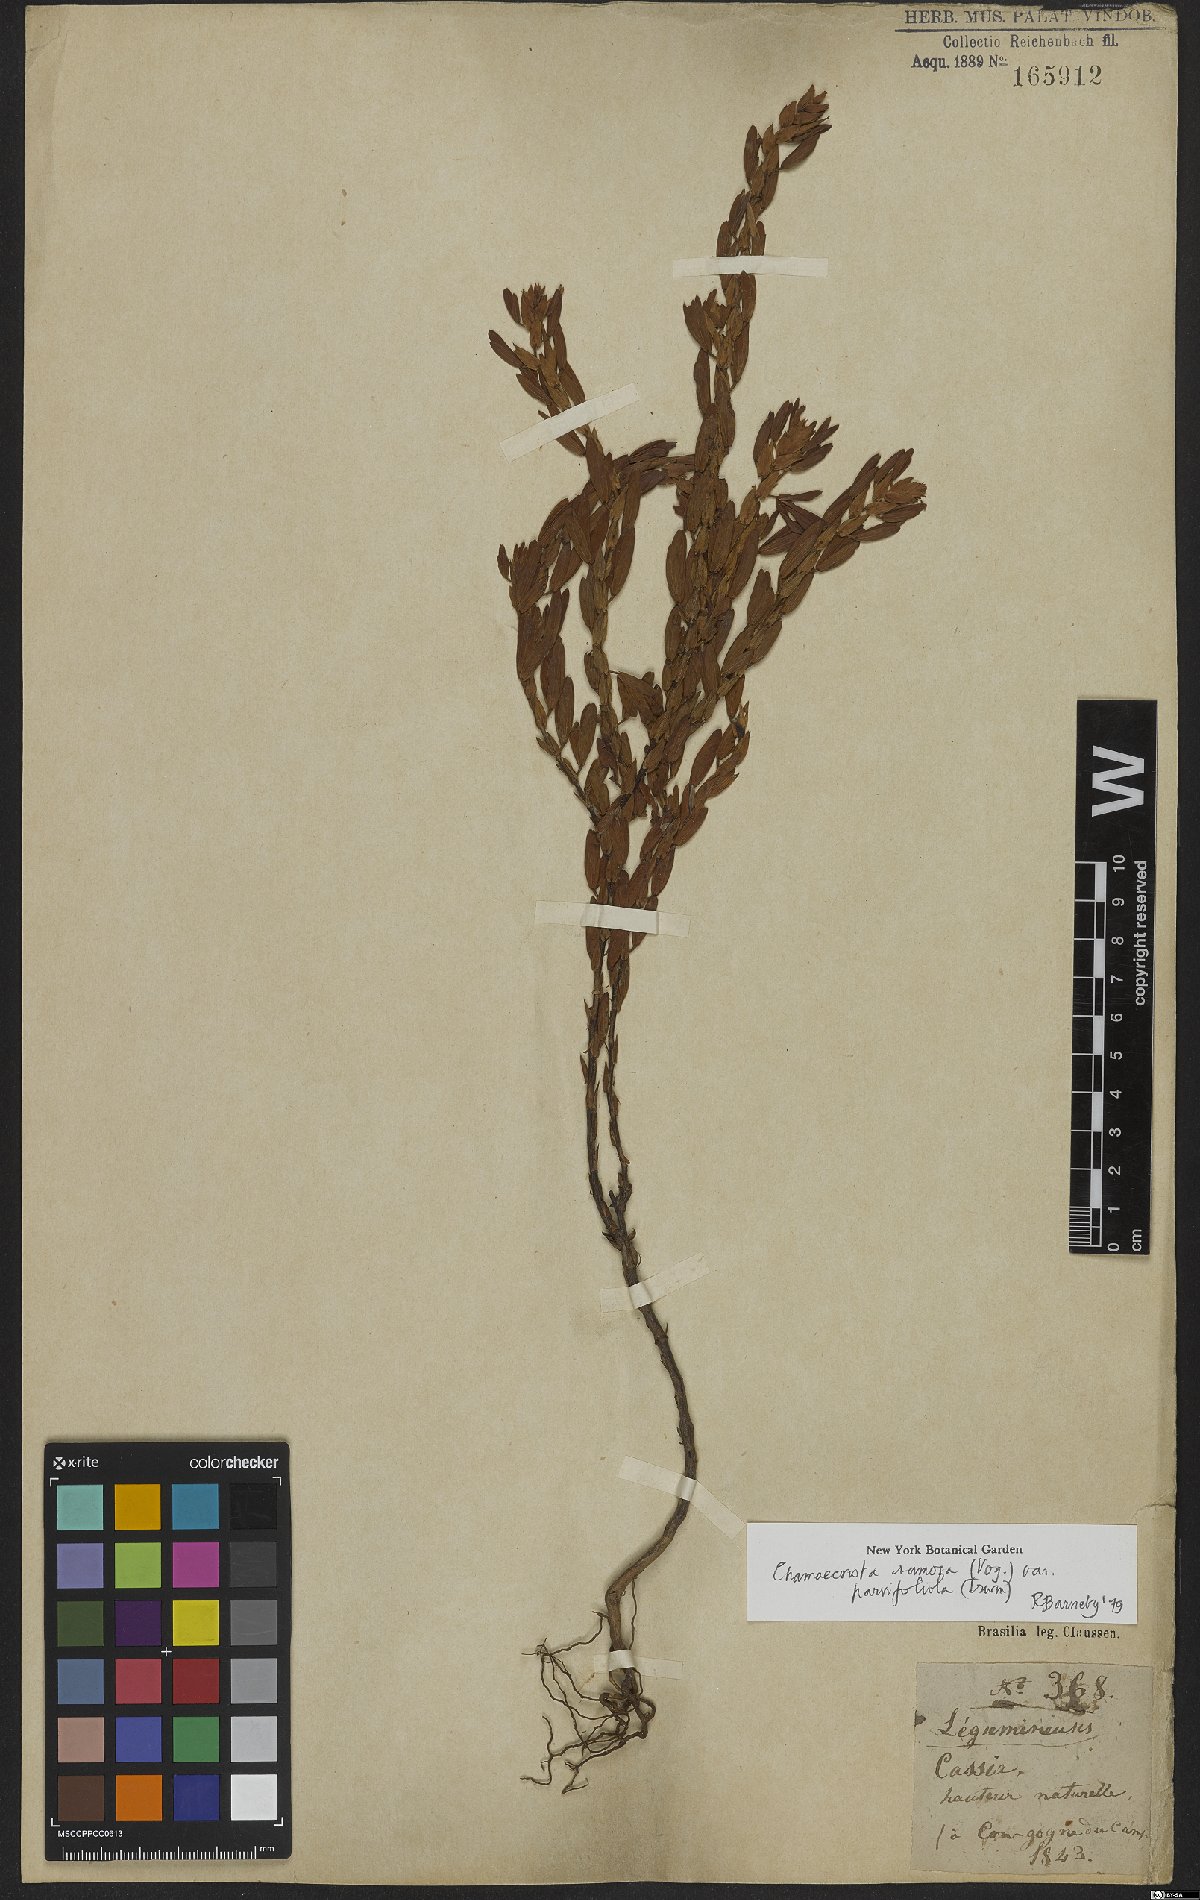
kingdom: Plantae
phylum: Tracheophyta
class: Magnoliopsida
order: Fabales
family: Fabaceae
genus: Chamaecrista
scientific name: Chamaecrista ramosa
